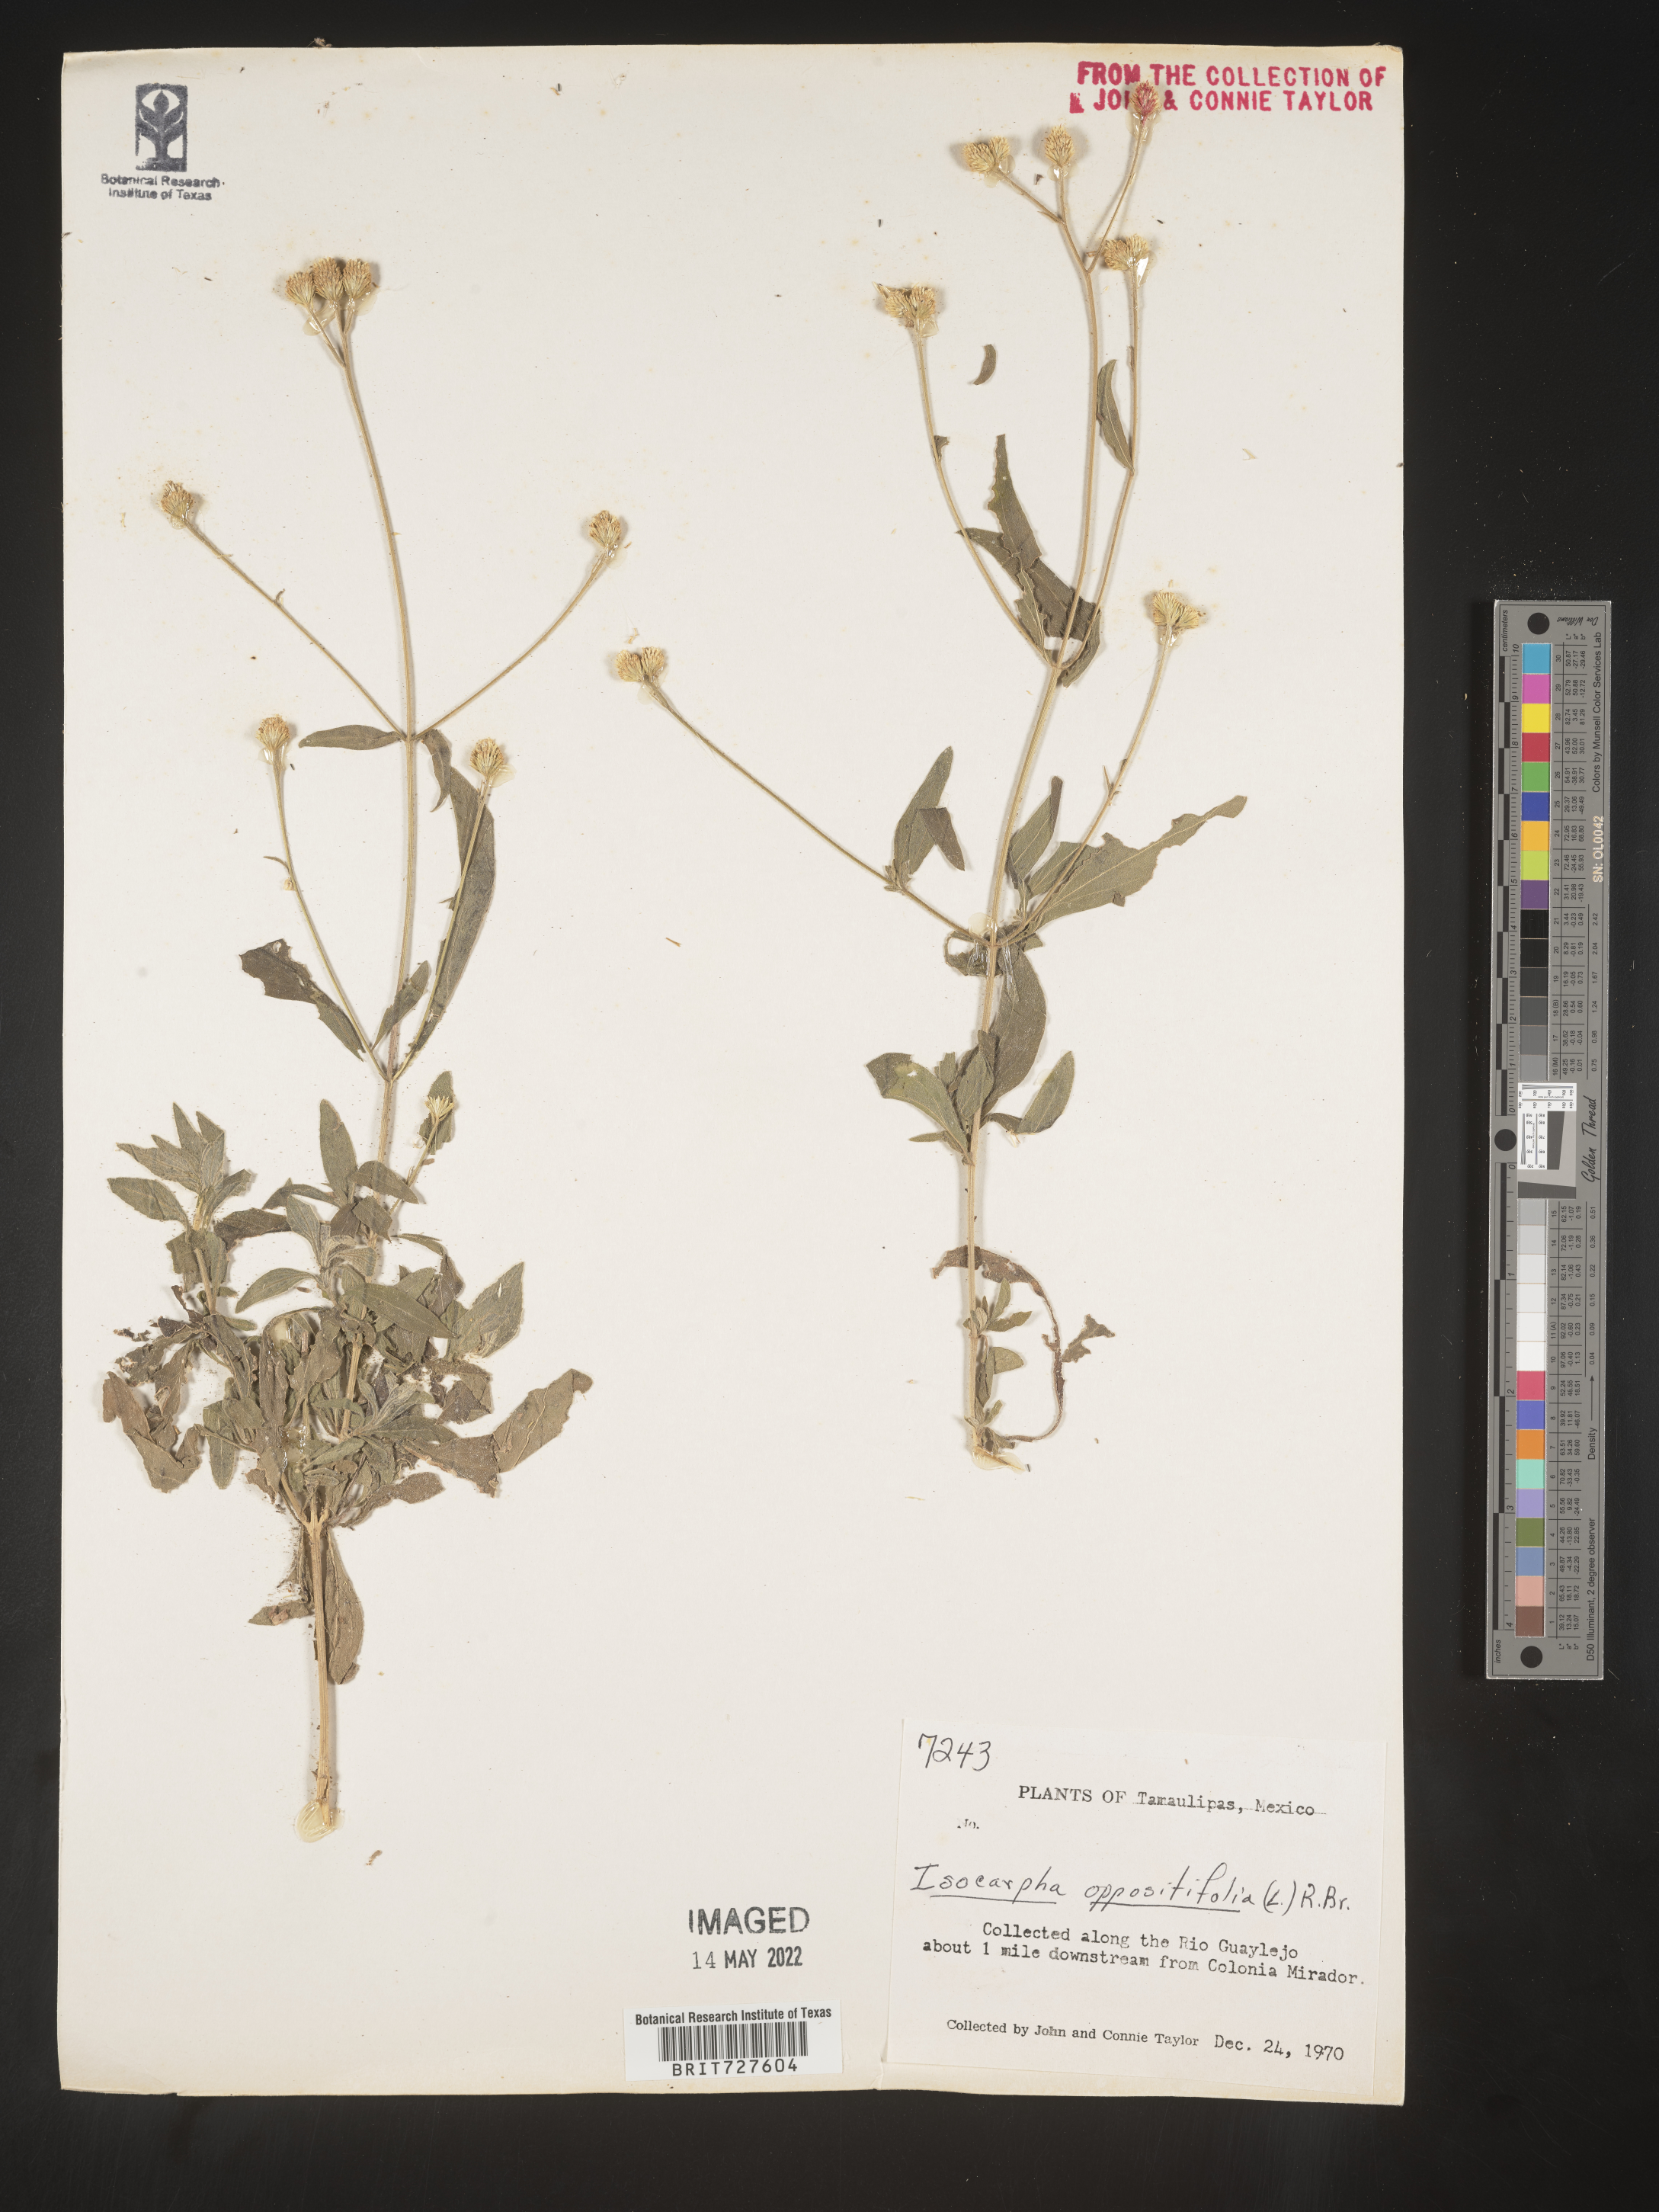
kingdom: Plantae
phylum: Tracheophyta
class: Magnoliopsida
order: Asterales
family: Asteraceae
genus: Isocarpha
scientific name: Isocarpha
